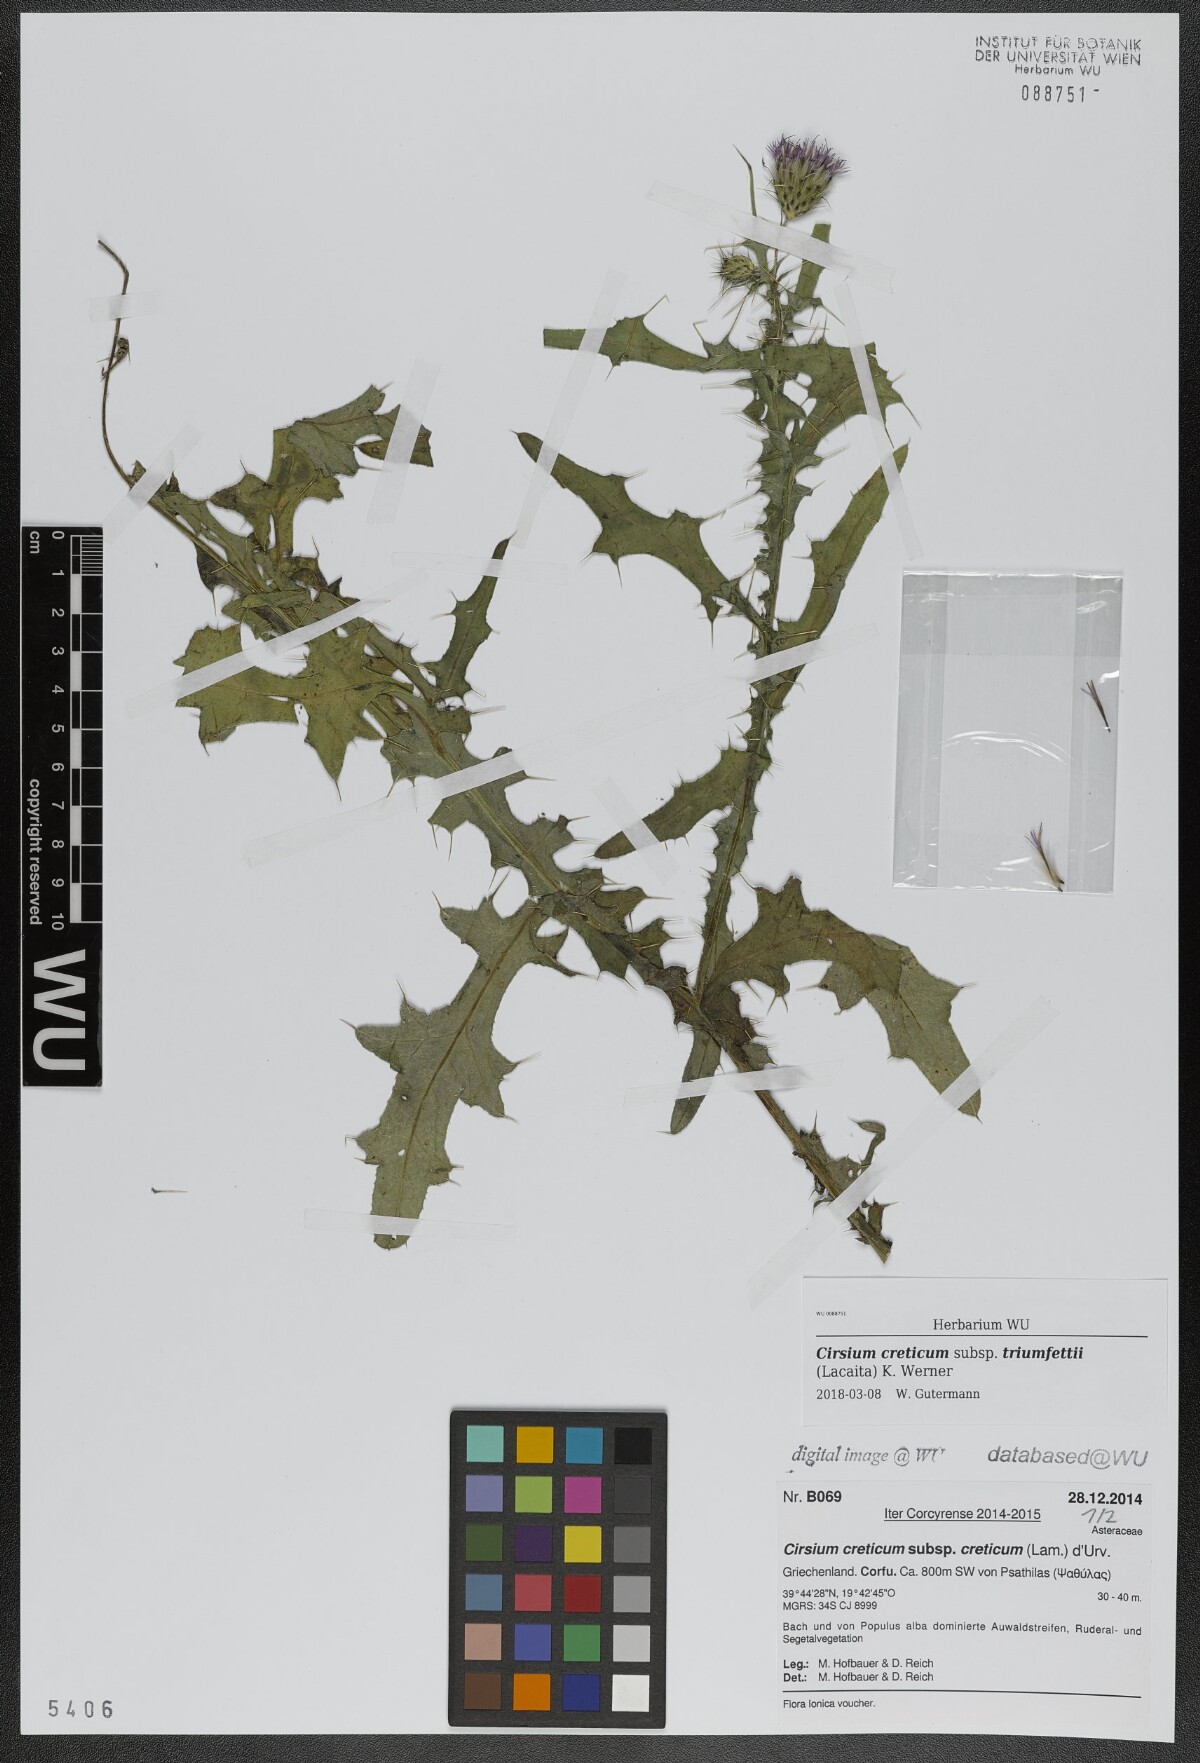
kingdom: Plantae
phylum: Tracheophyta
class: Magnoliopsida
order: Asterales
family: Asteraceae
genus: Cirsium
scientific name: Cirsium creticum
